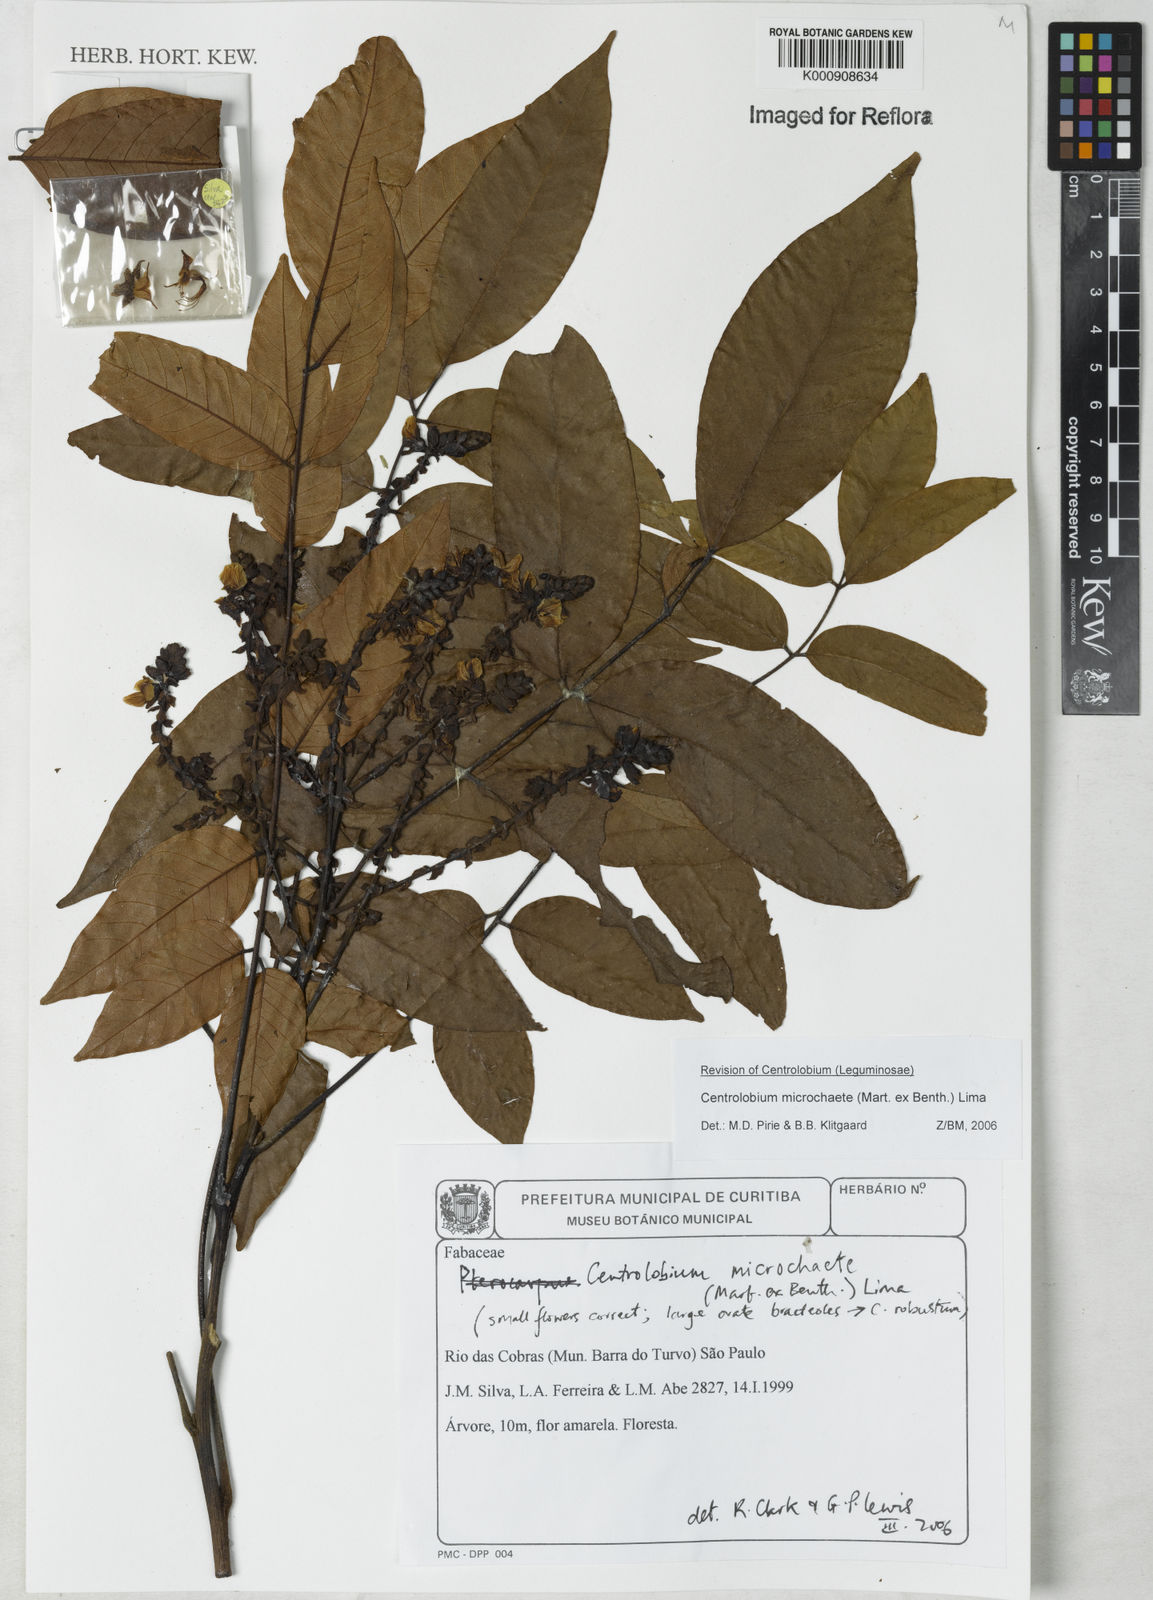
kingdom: Plantae
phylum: Tracheophyta
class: Magnoliopsida
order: Fabales
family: Fabaceae
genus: Centrolobium
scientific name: Centrolobium microchaete
